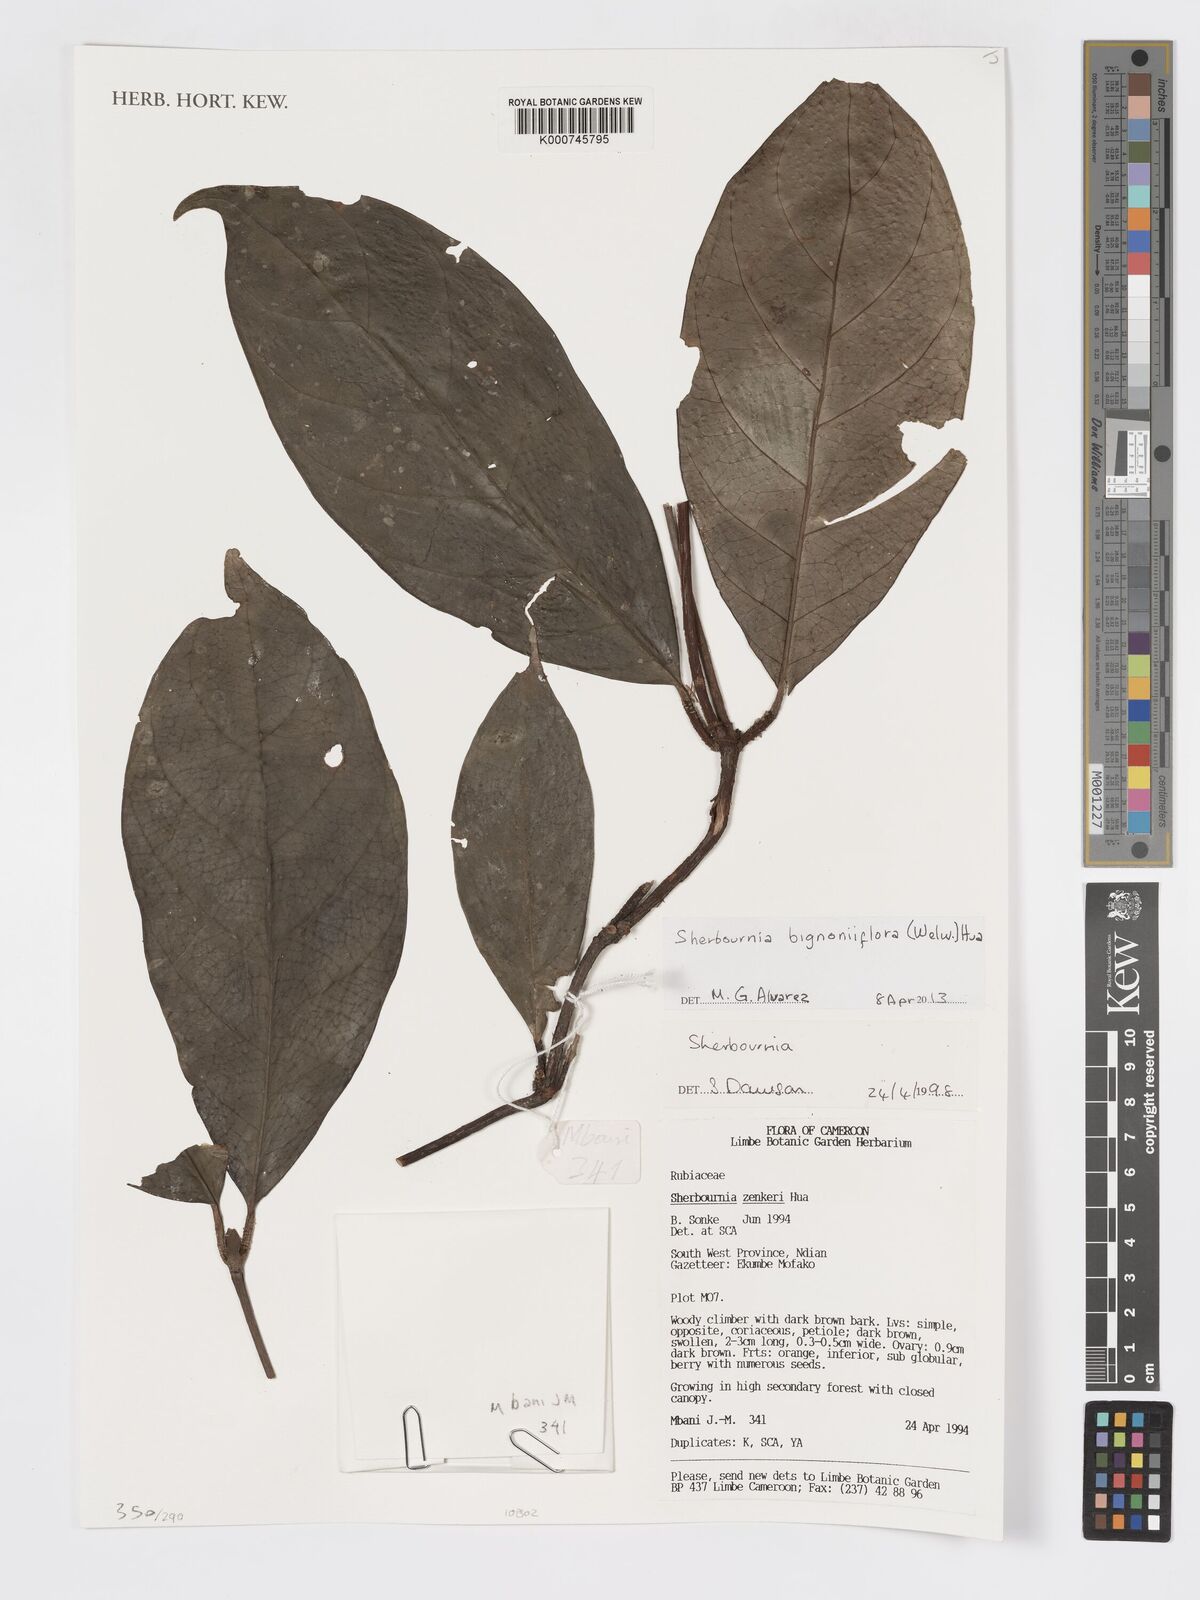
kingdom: Plantae
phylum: Tracheophyta
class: Magnoliopsida
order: Gentianales
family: Rubiaceae
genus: Sherbournia
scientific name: Sherbournia bignoniiflora
